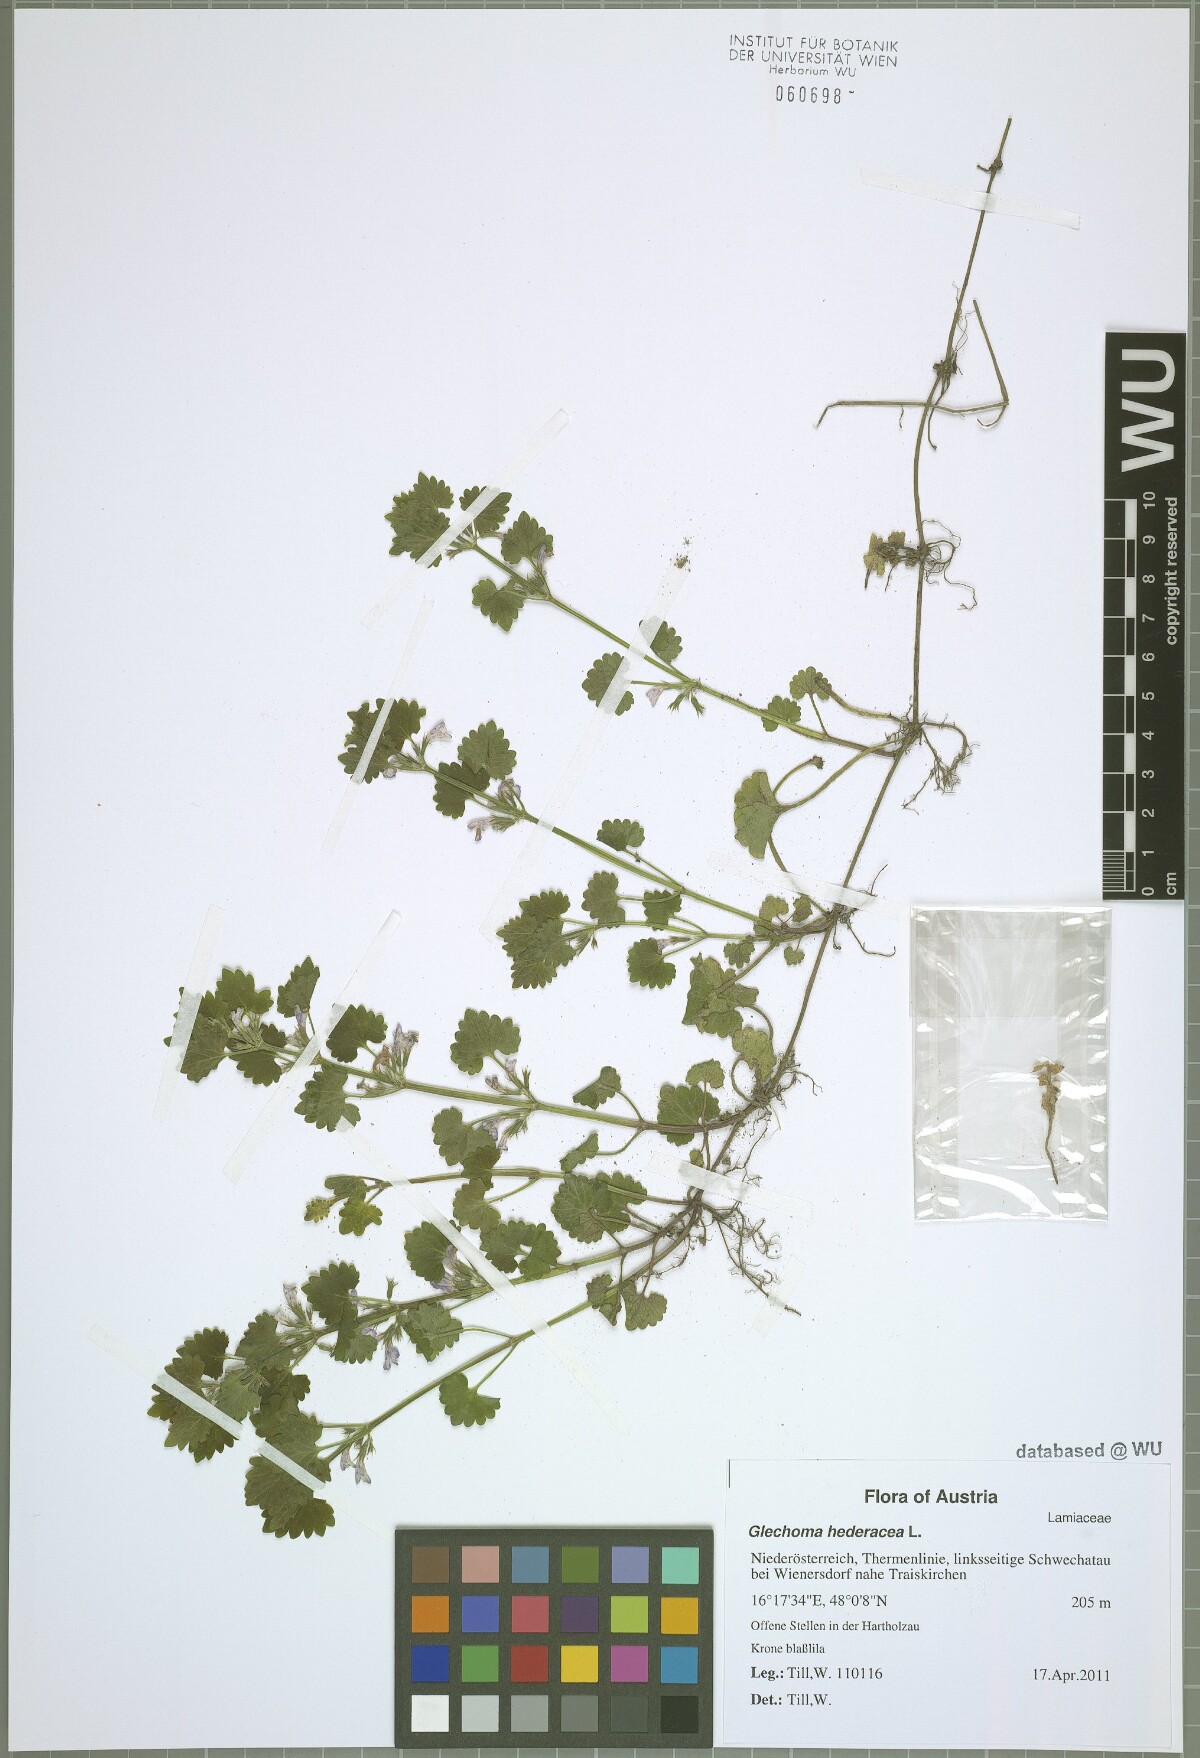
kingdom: Plantae
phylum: Tracheophyta
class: Magnoliopsida
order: Lamiales
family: Lamiaceae
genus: Glechoma
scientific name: Glechoma hederacea
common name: Ground ivy
